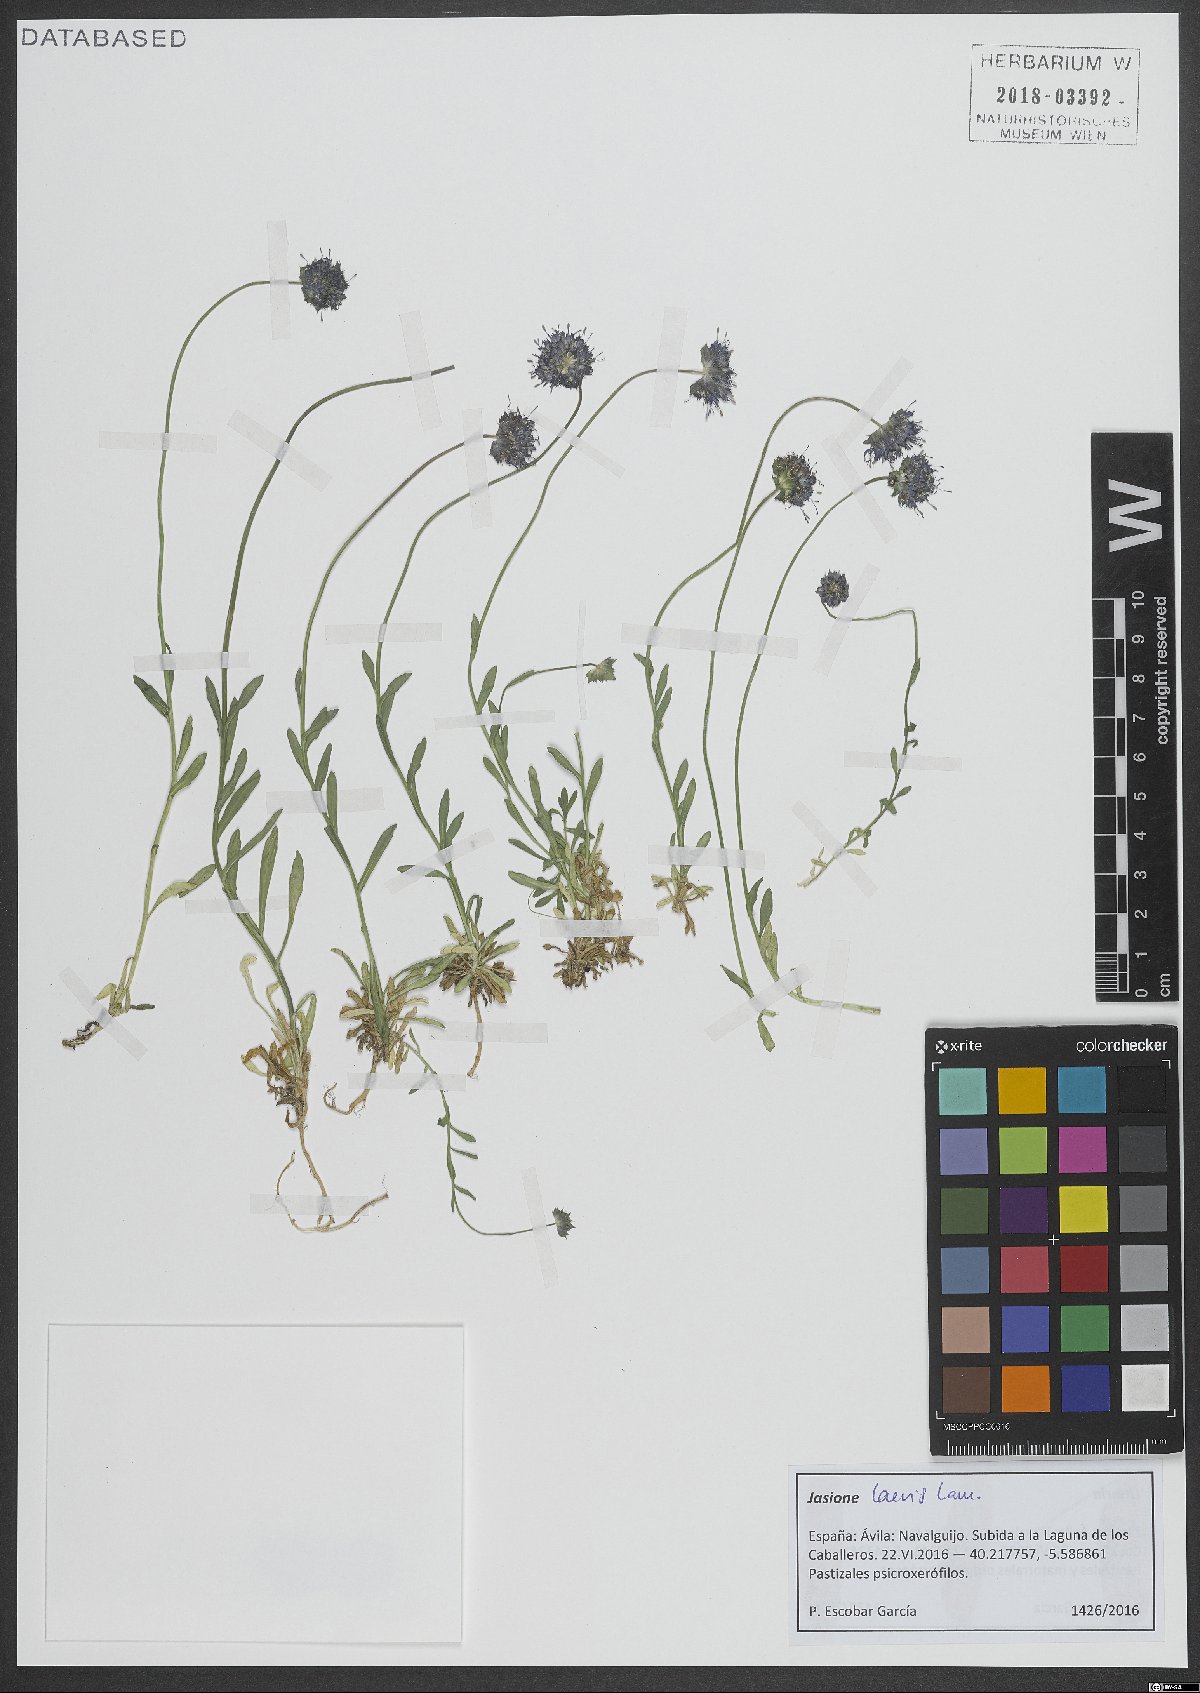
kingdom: Plantae
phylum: Tracheophyta
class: Magnoliopsida
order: Asterales
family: Campanulaceae
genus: Jasione
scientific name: Jasione laevis
